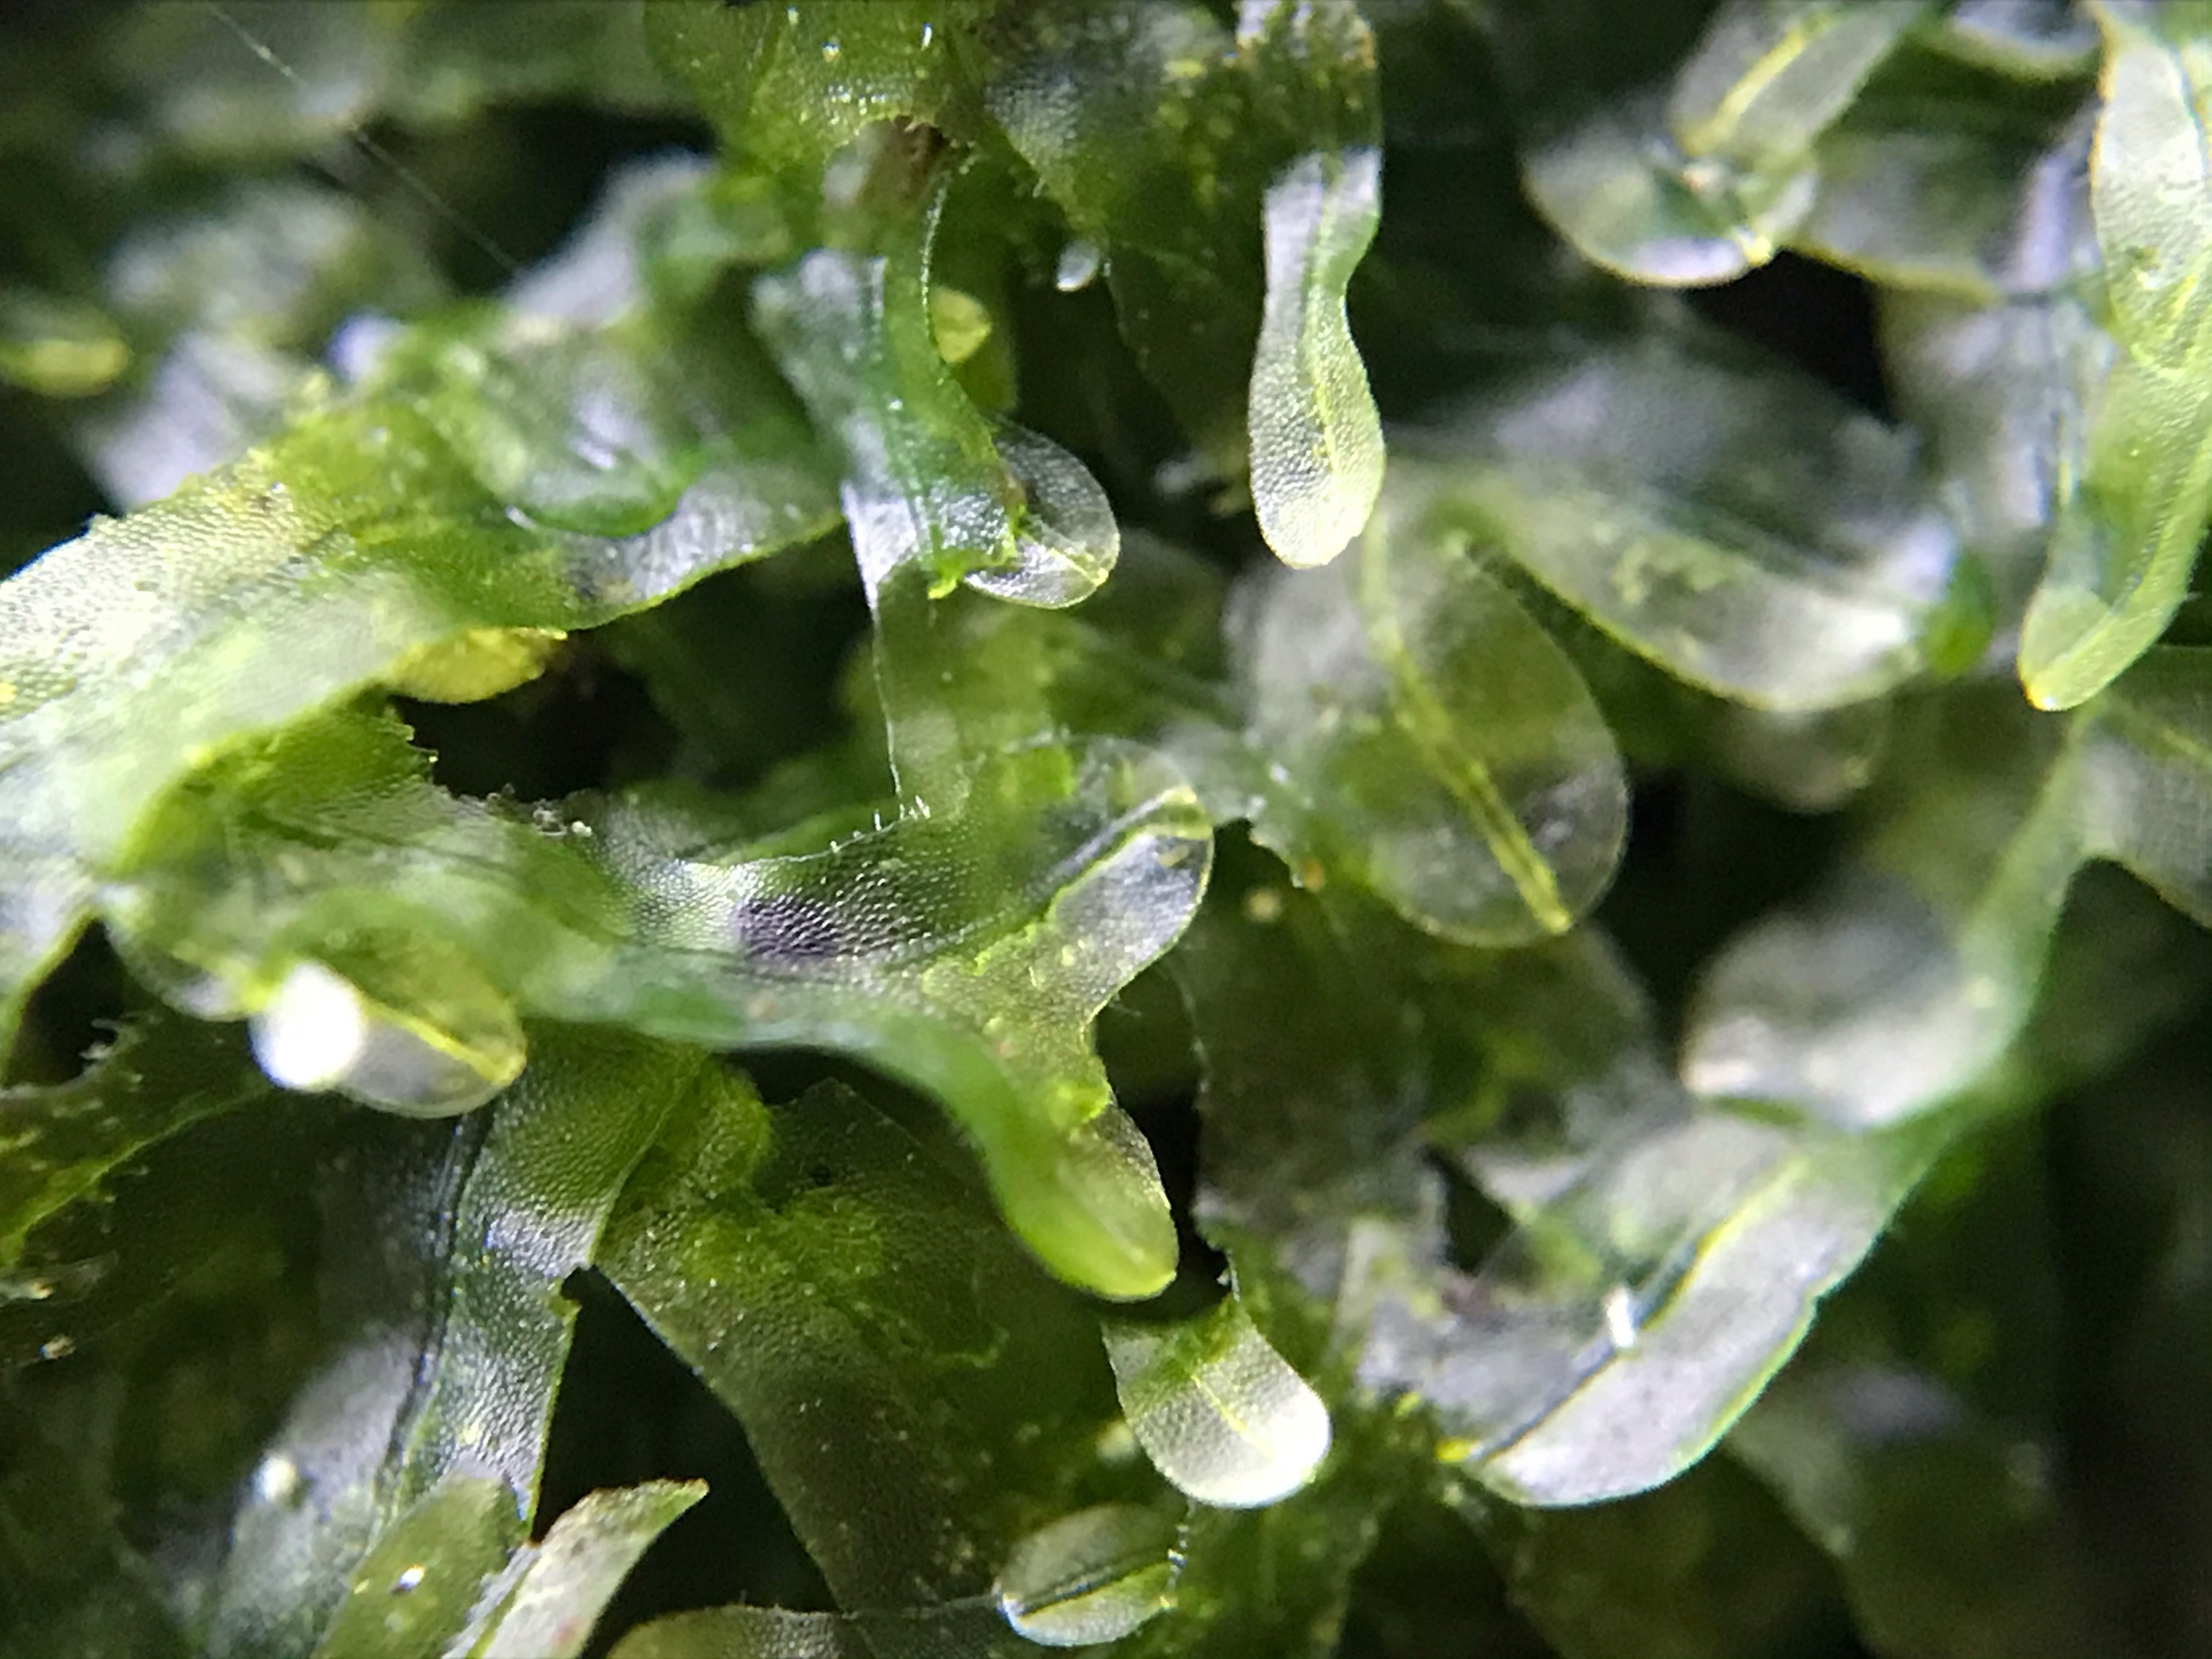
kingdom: Plantae
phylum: Marchantiophyta
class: Jungermanniopsida
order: Metzgeriales
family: Metzgeriaceae
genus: Metzgeria
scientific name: Metzgeria furcata
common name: Almindelig gaffelløv
